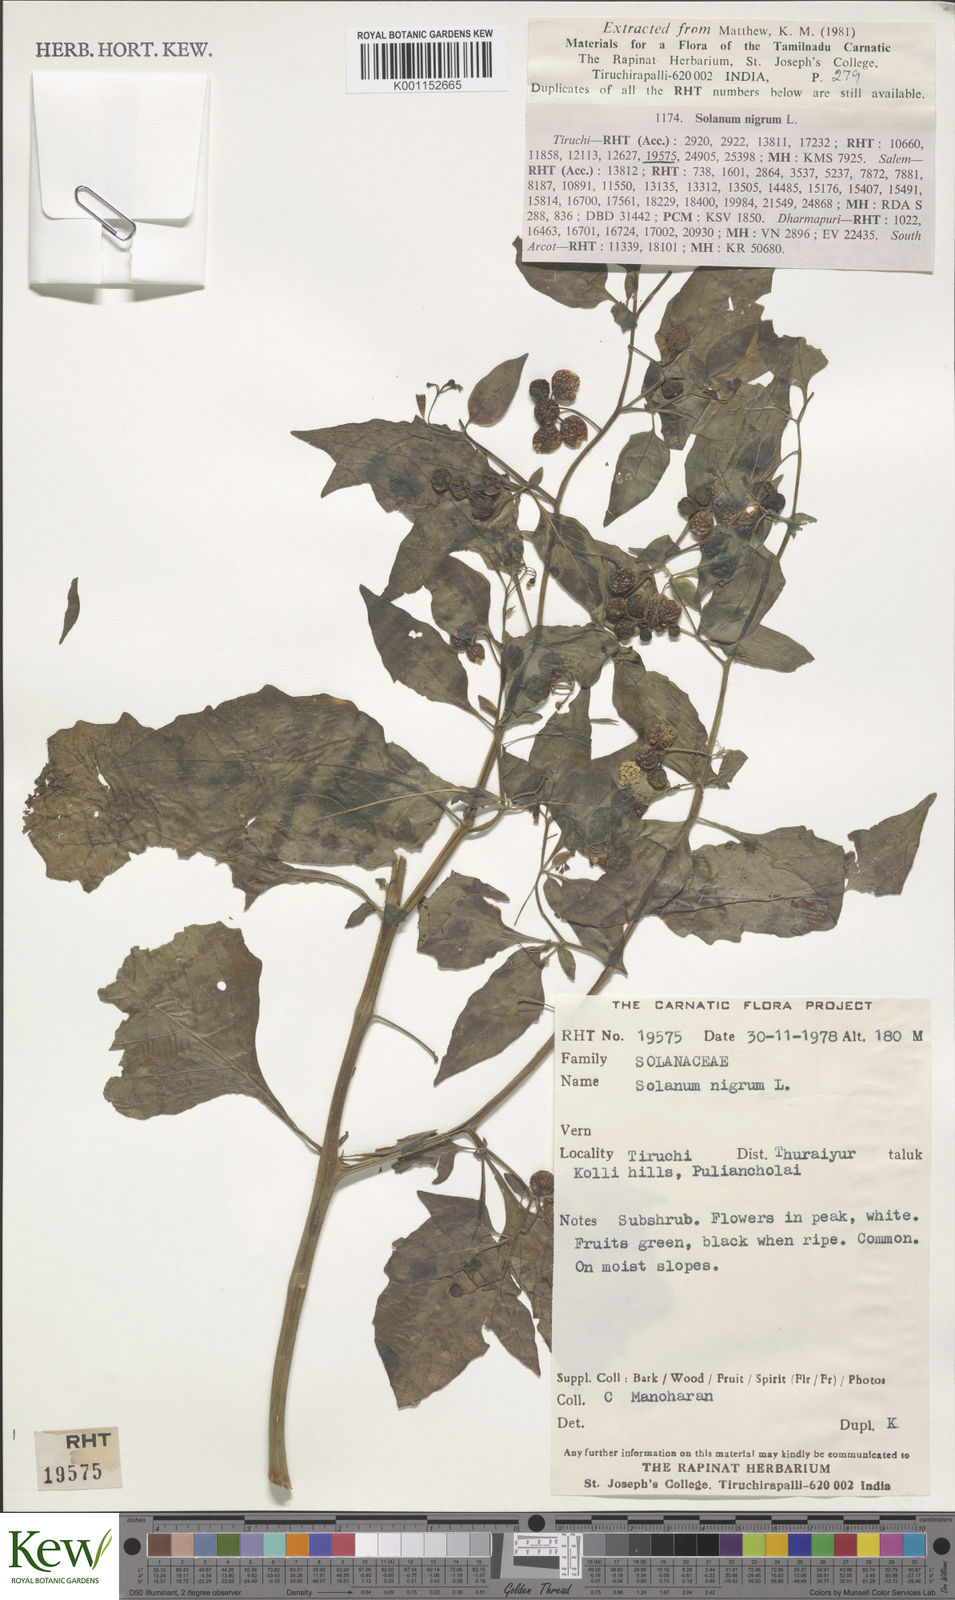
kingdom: Plantae
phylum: Tracheophyta
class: Magnoliopsida
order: Solanales
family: Solanaceae
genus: Solanum
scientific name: Solanum nigrum
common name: Black nightshade
